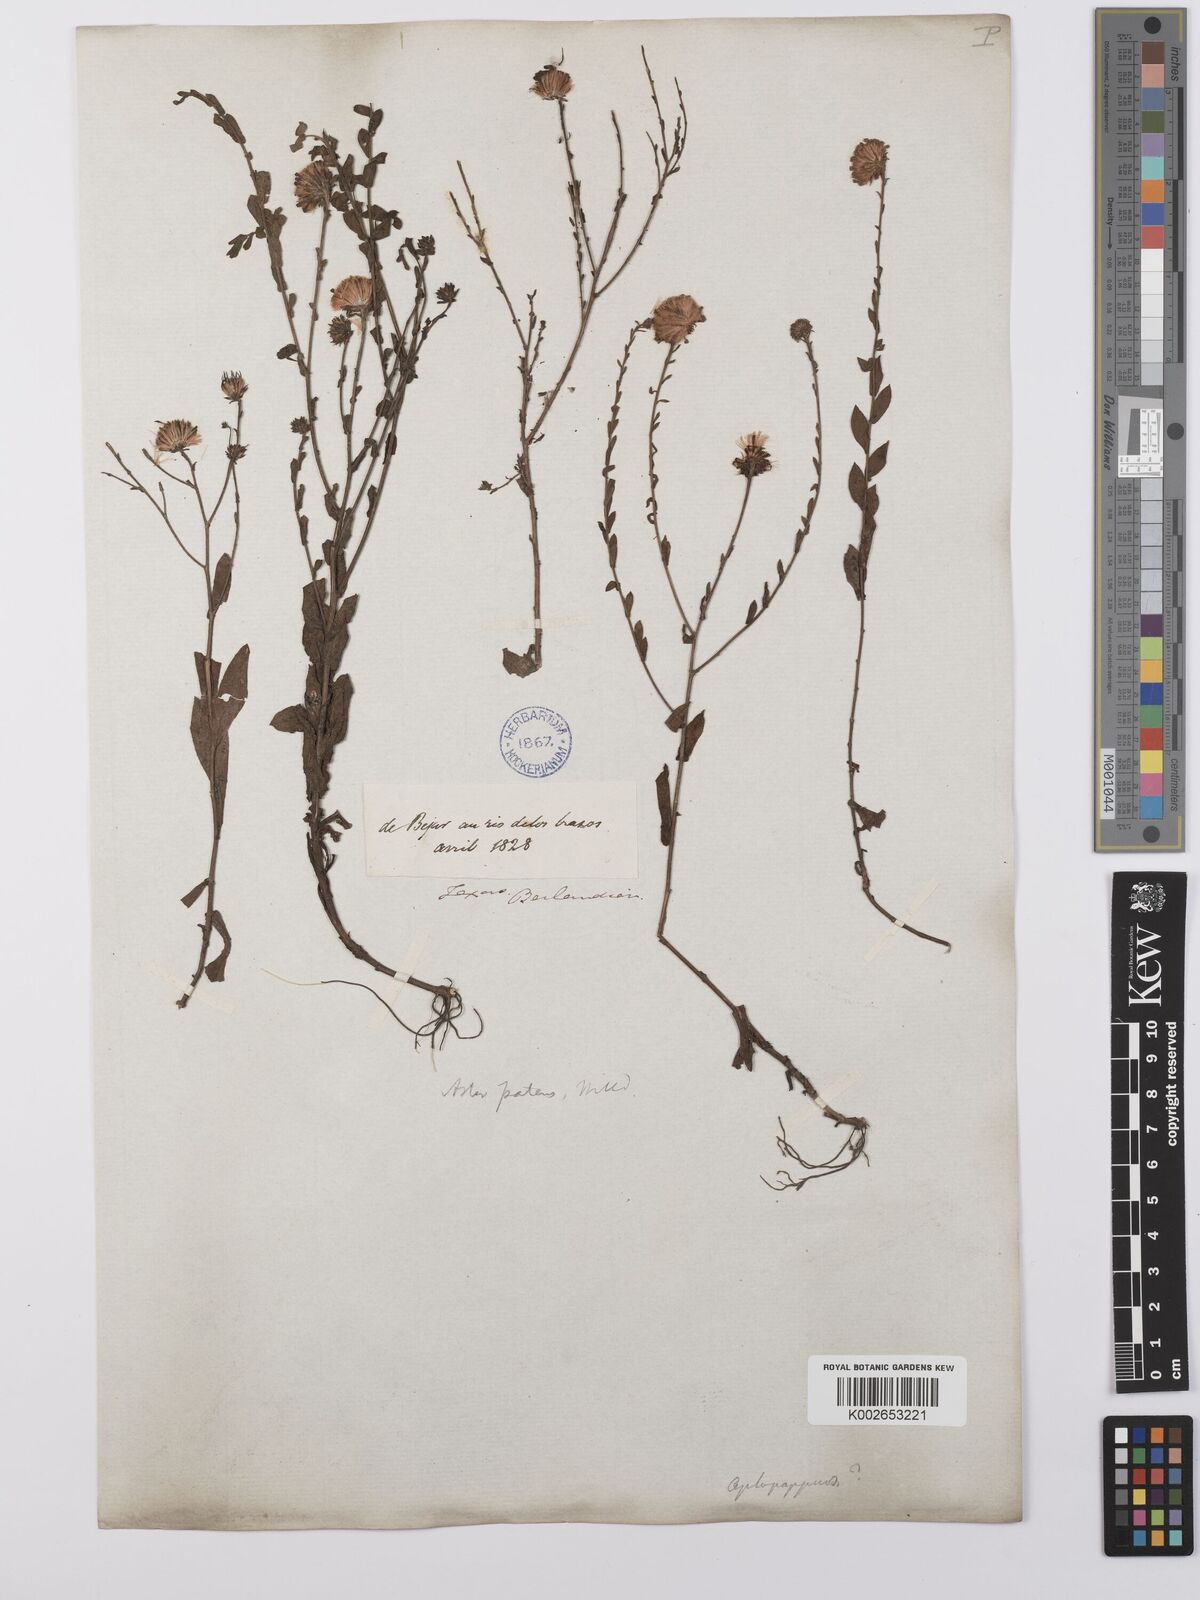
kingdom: Plantae
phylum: Tracheophyta
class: Magnoliopsida
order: Asterales
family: Asteraceae
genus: Symphyotrichum
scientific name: Symphyotrichum patens
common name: Late purple aster
